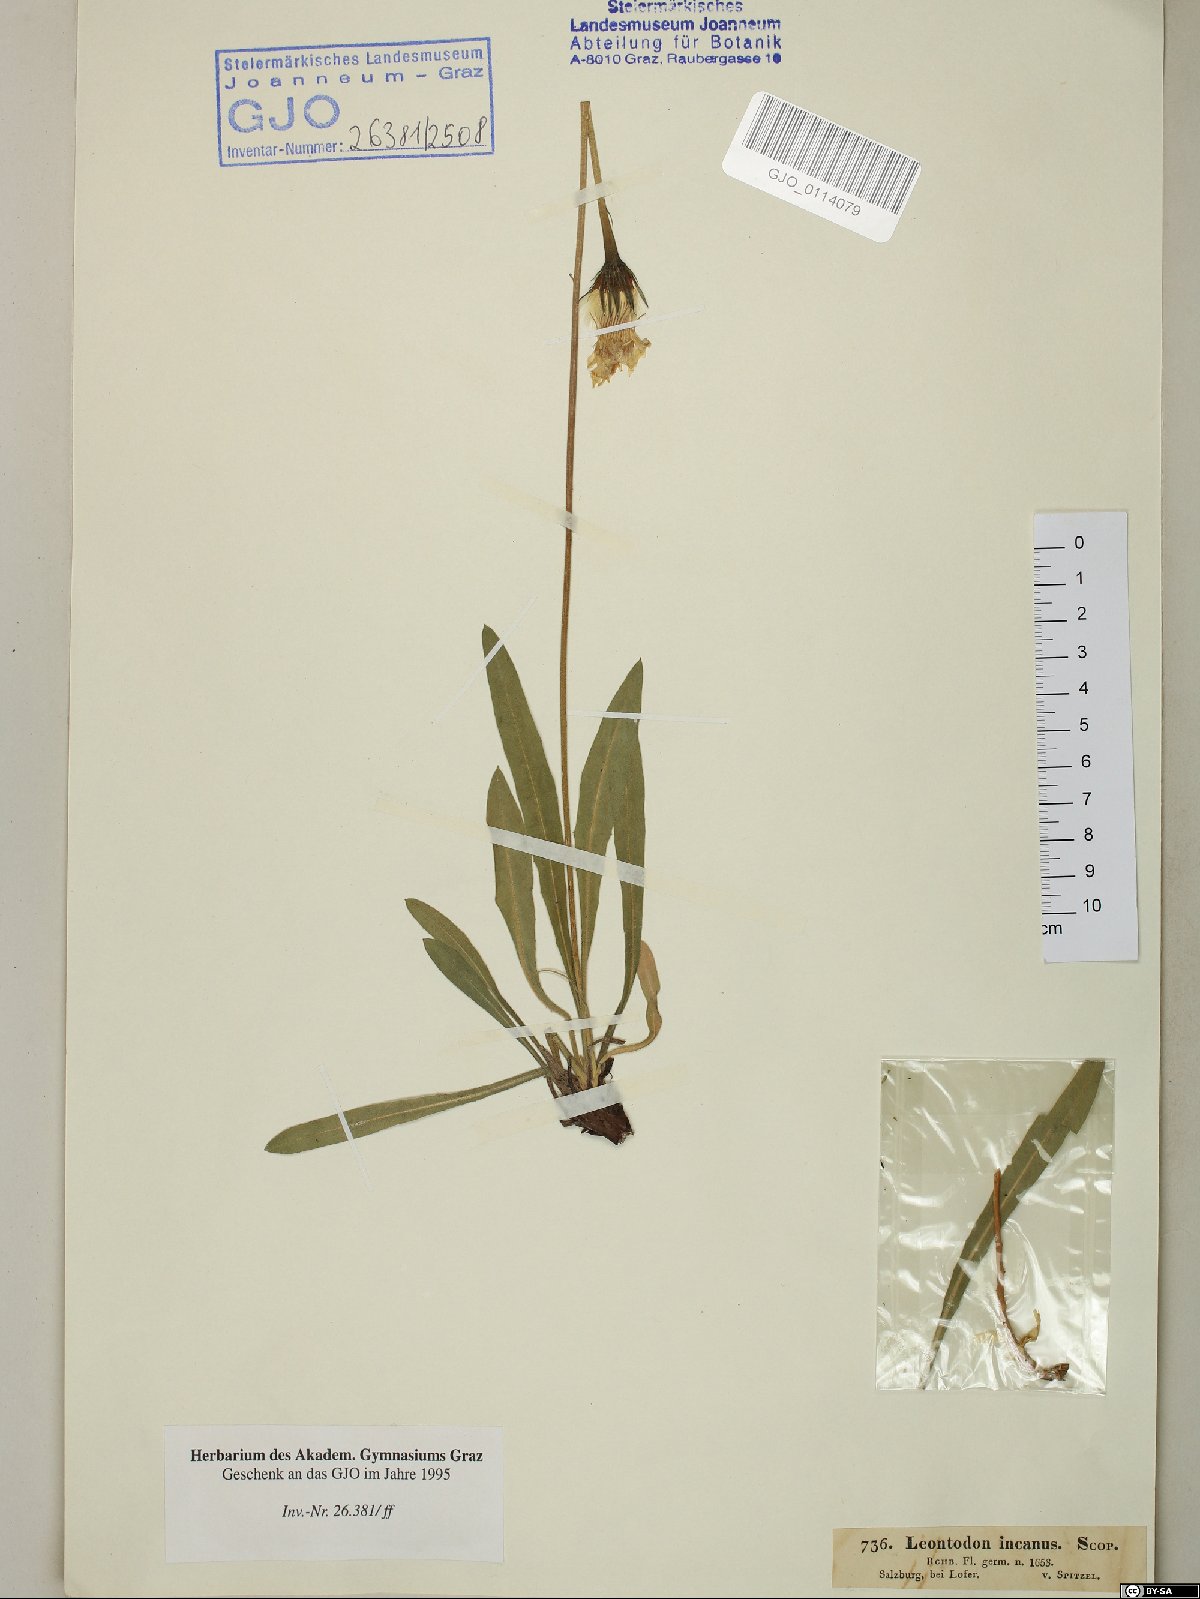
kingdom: Plantae
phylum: Tracheophyta
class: Magnoliopsida
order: Asterales
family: Asteraceae
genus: Leontodon
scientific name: Leontodon incanus
